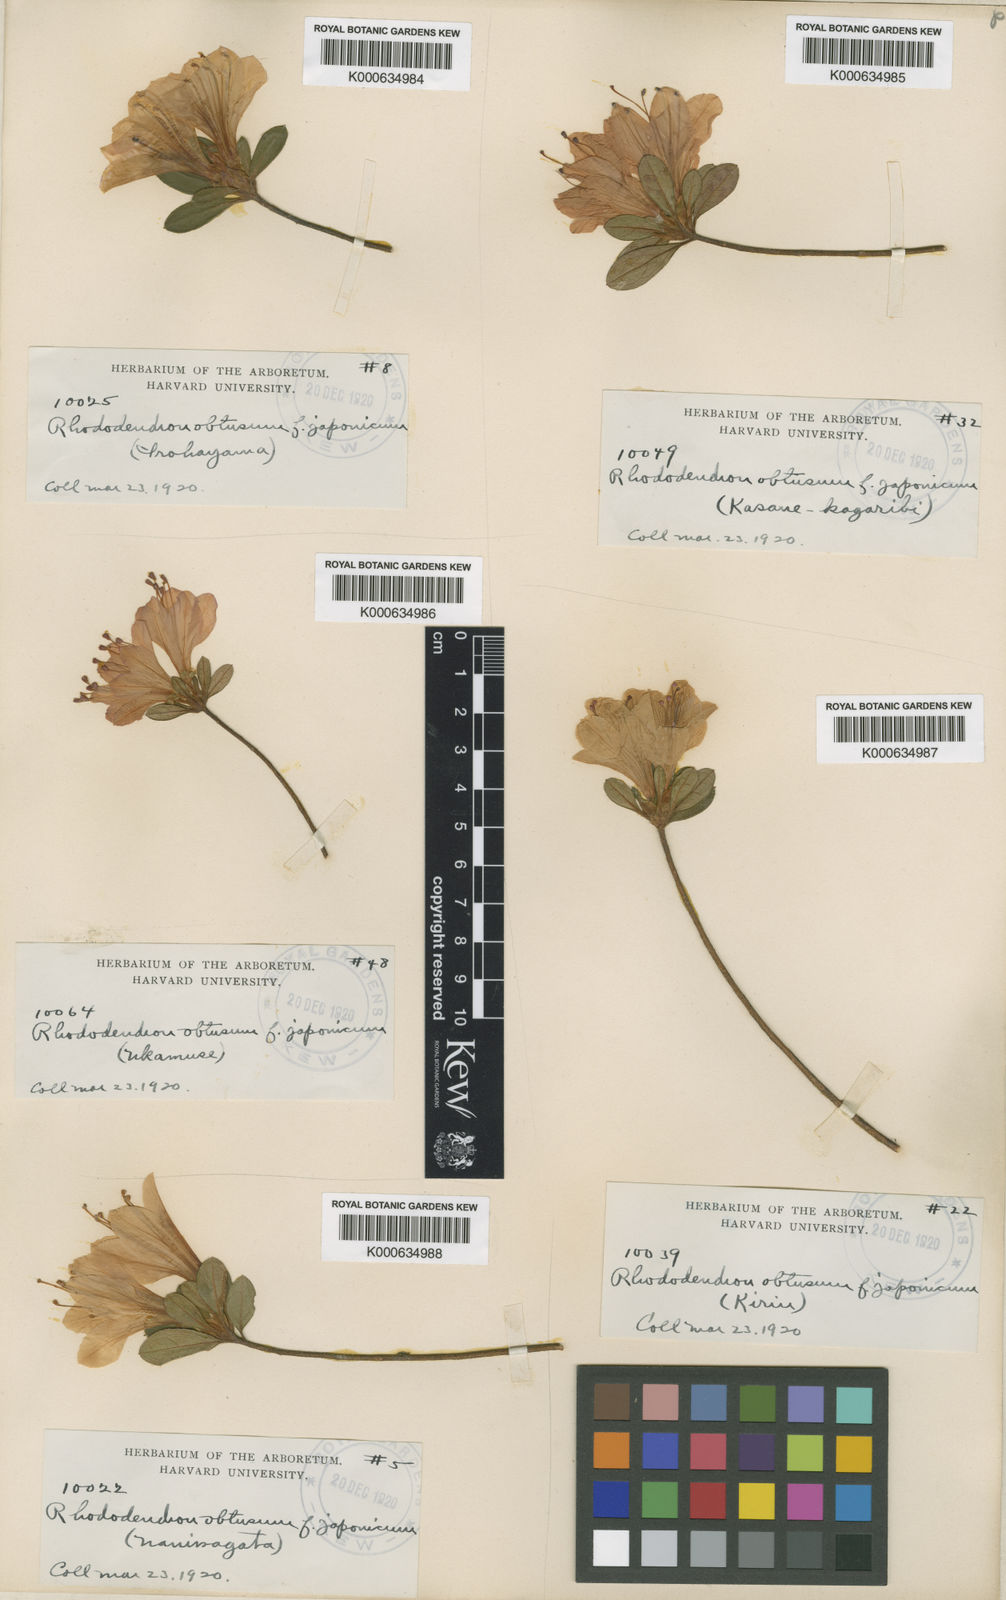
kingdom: Plantae
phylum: Tracheophyta
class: Magnoliopsida
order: Ericales
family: Ericaceae
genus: Rhododendron
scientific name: Rhododendron kiusianum
